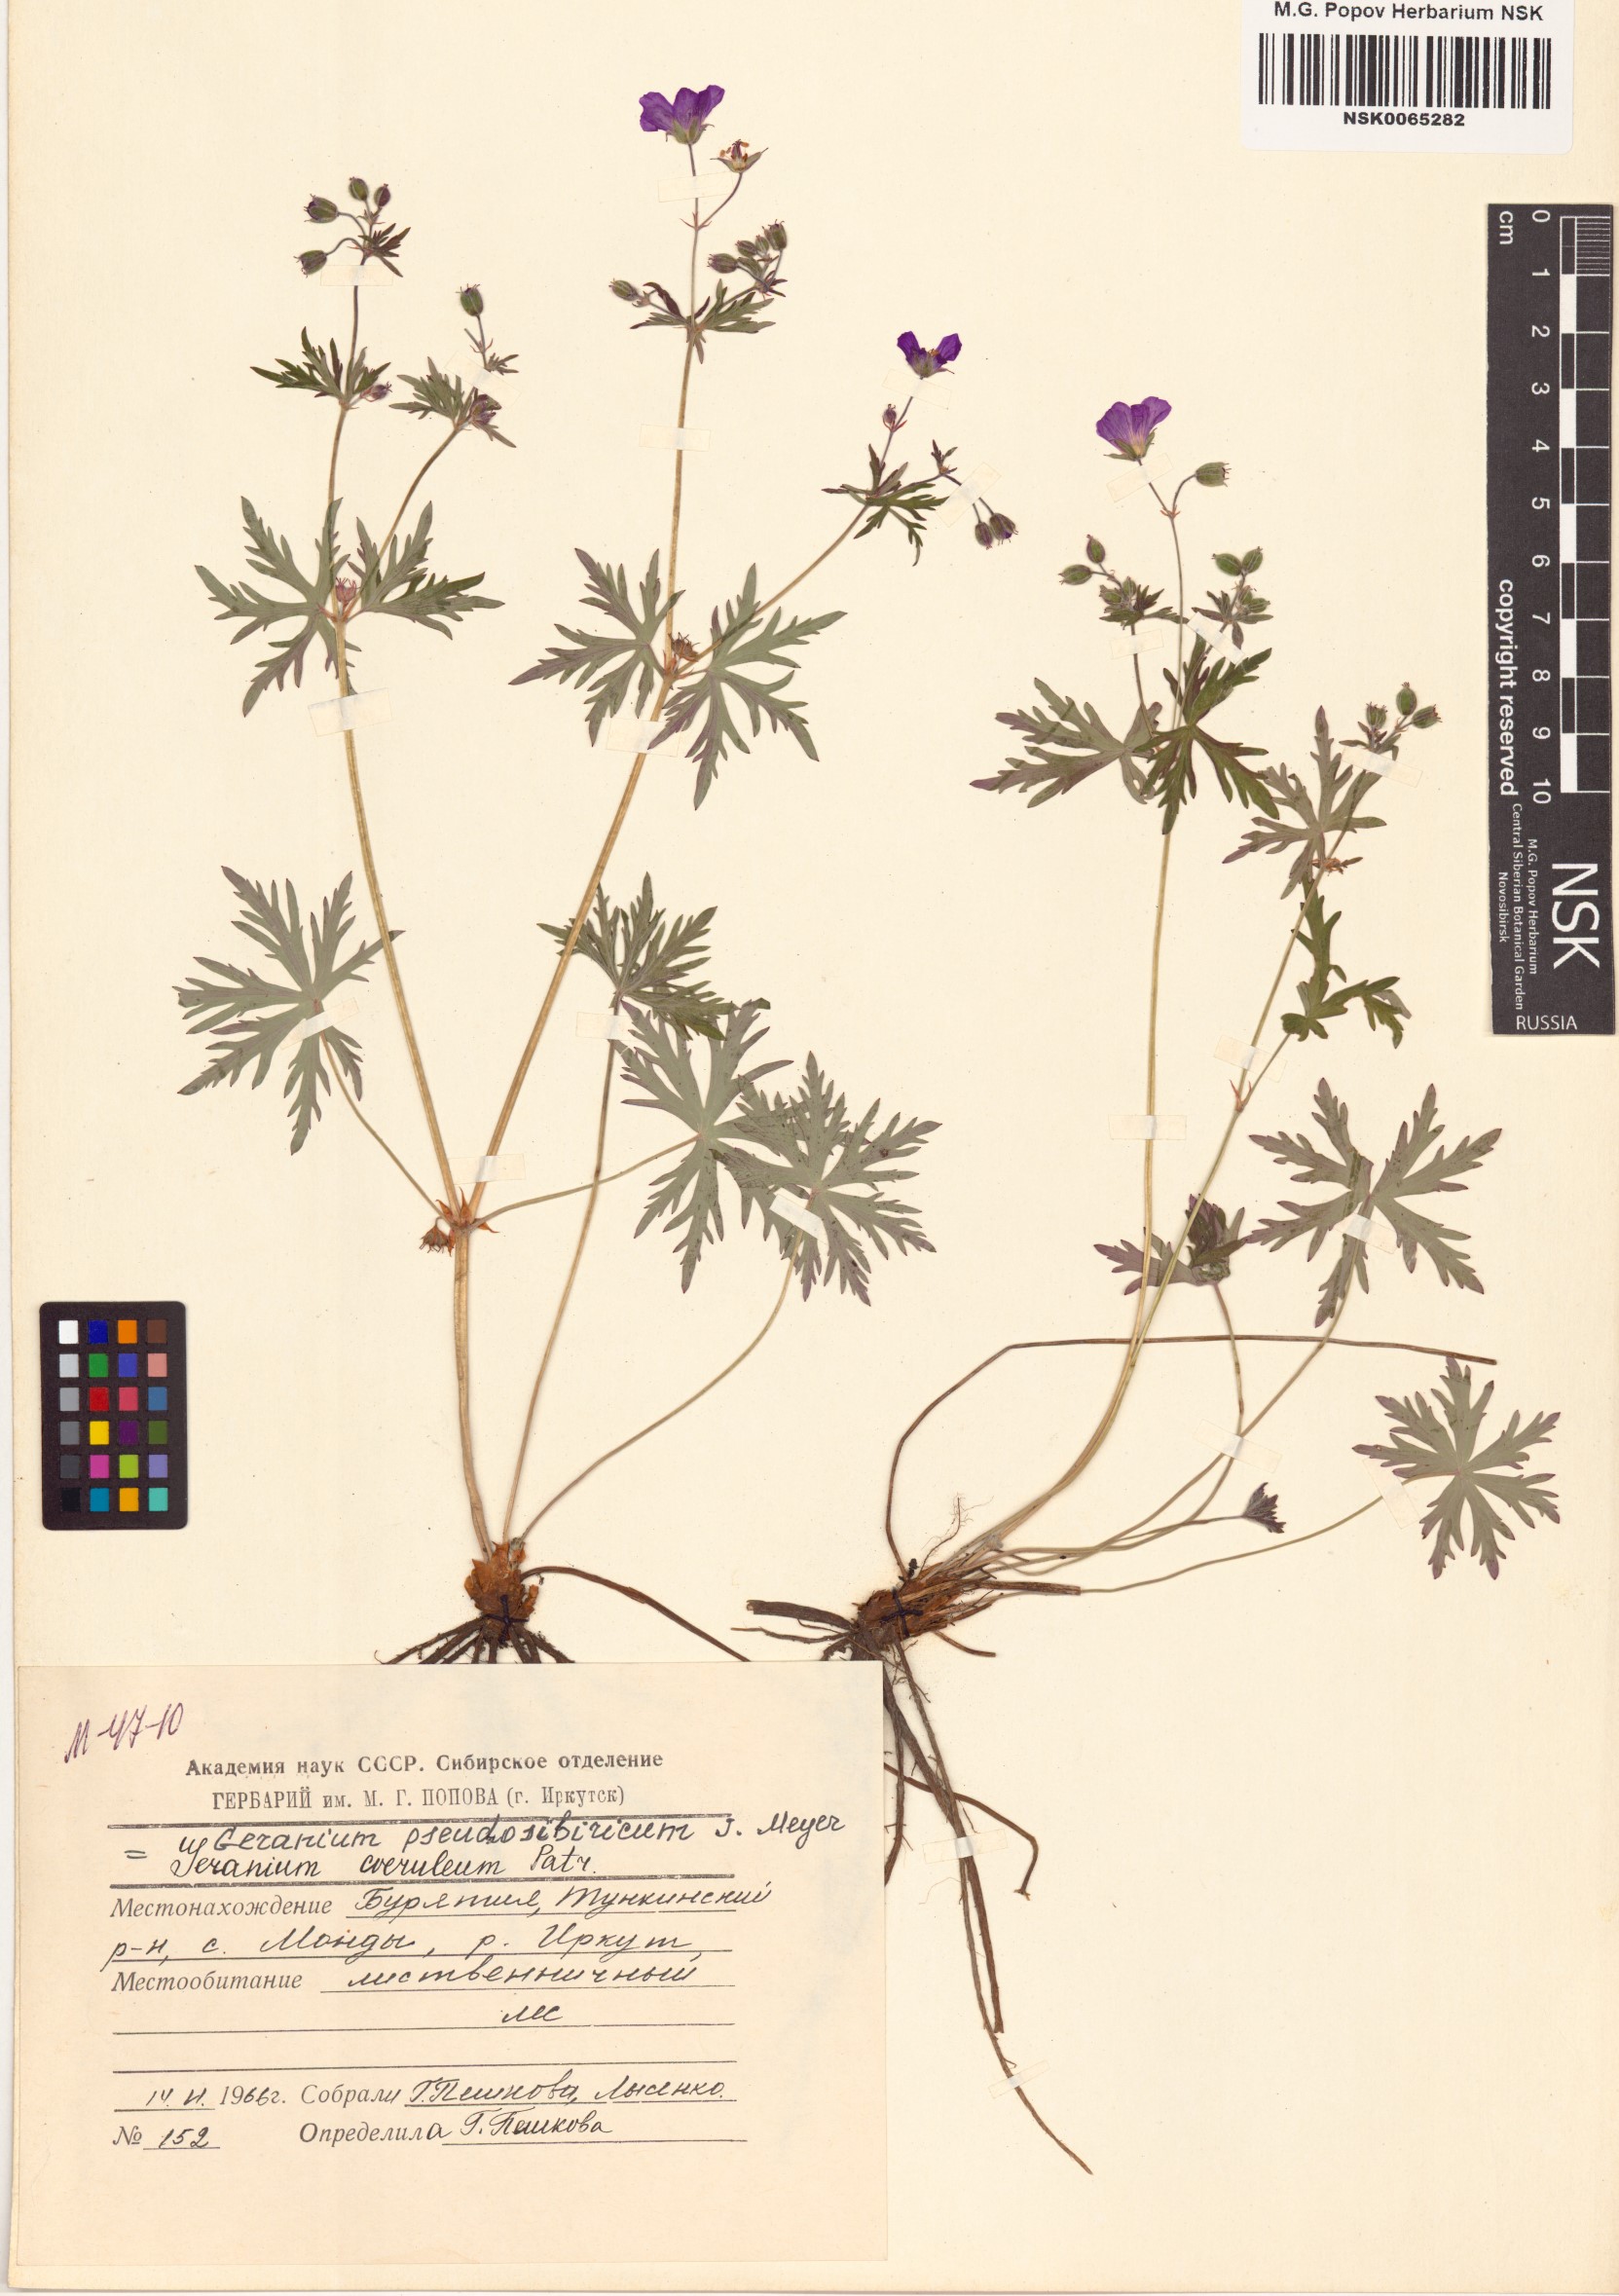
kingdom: Plantae
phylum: Tracheophyta
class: Magnoliopsida
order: Geraniales
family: Geraniaceae
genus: Geranium
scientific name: Geranium pseudosibiricum
